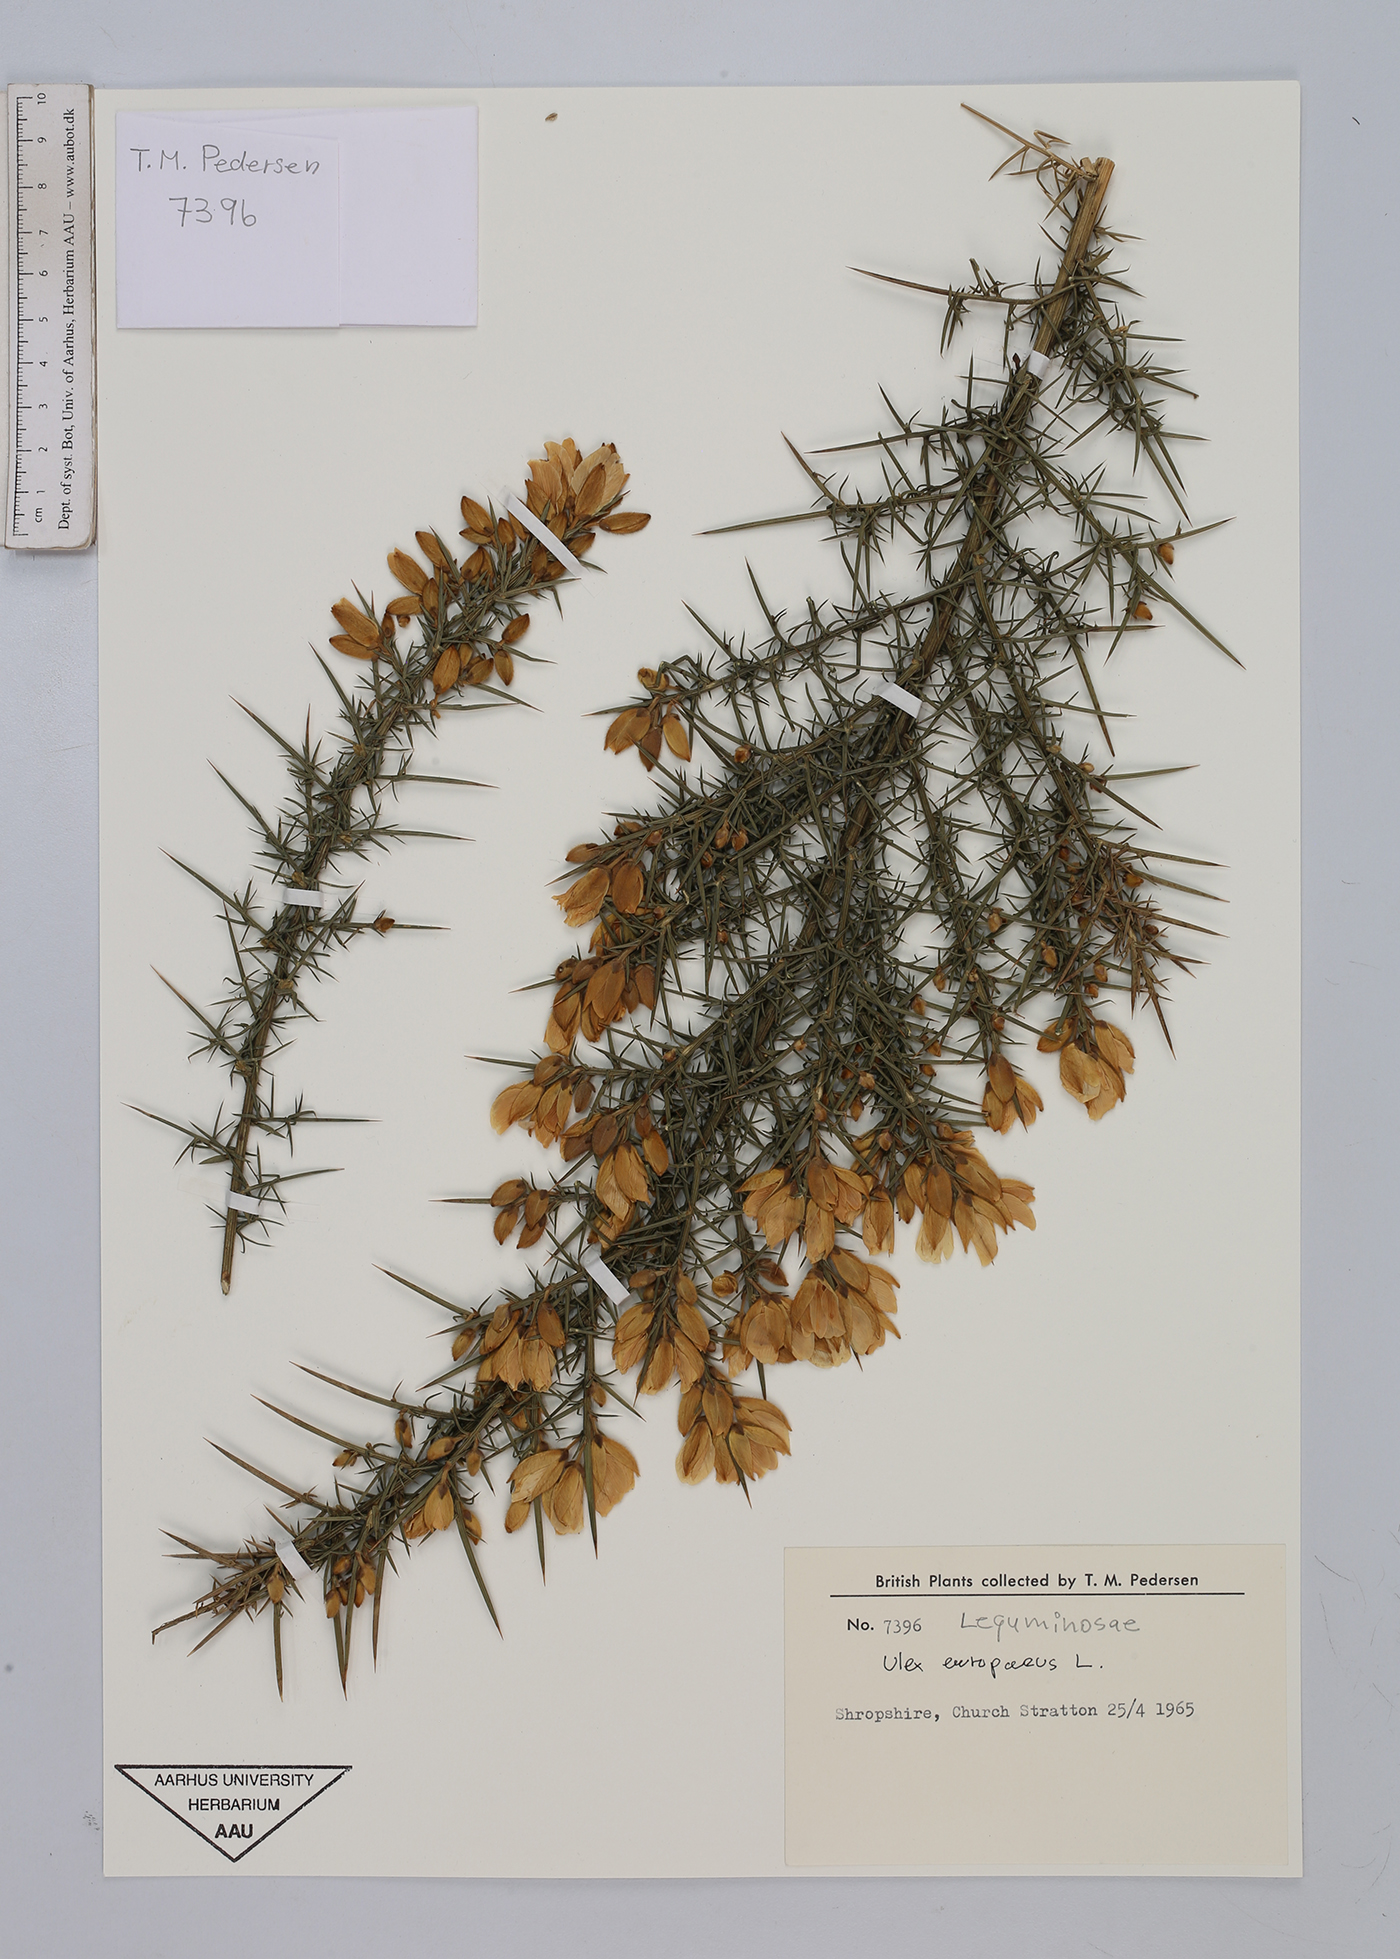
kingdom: Plantae
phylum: Tracheophyta
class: Magnoliopsida
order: Fabales
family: Fabaceae
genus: Ulex
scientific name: Ulex europaeus
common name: Common gorse
